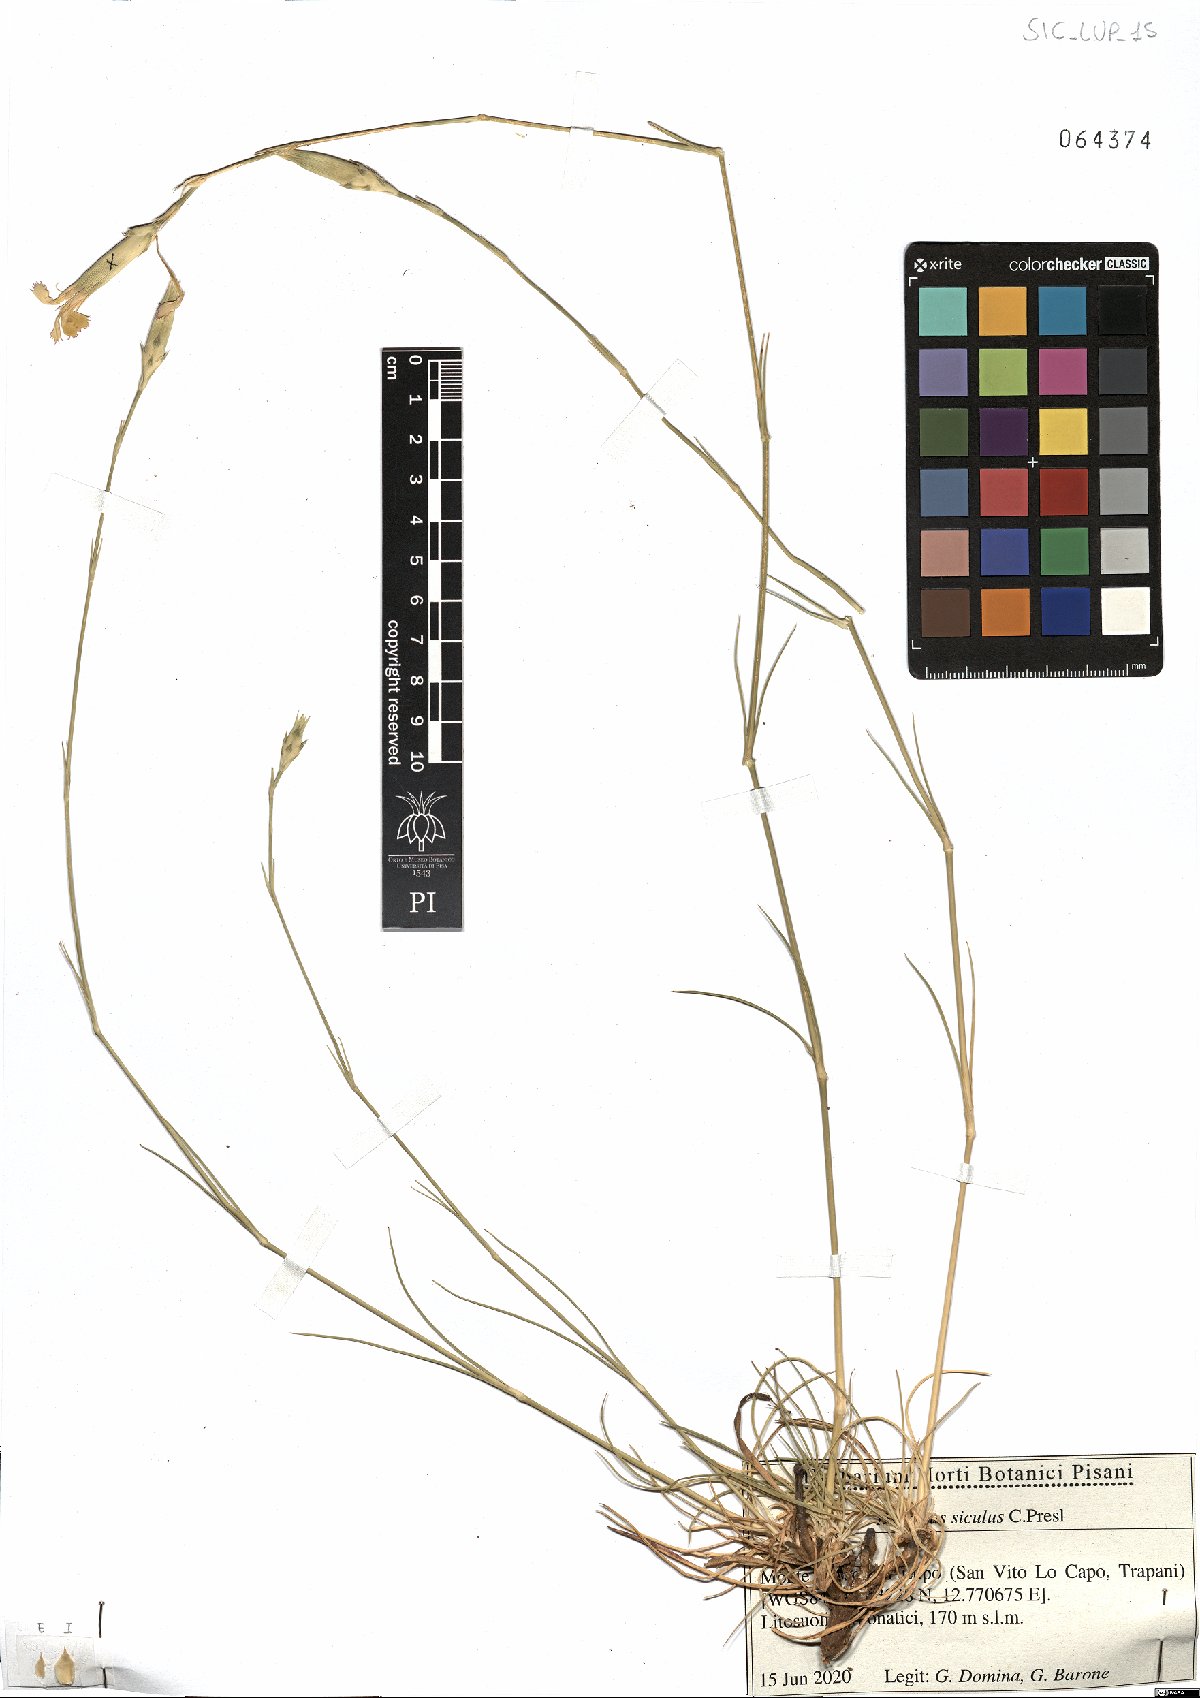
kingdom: Plantae
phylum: Tracheophyta
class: Magnoliopsida
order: Caryophyllales
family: Caryophyllaceae
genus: Dianthus
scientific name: Dianthus siculus
